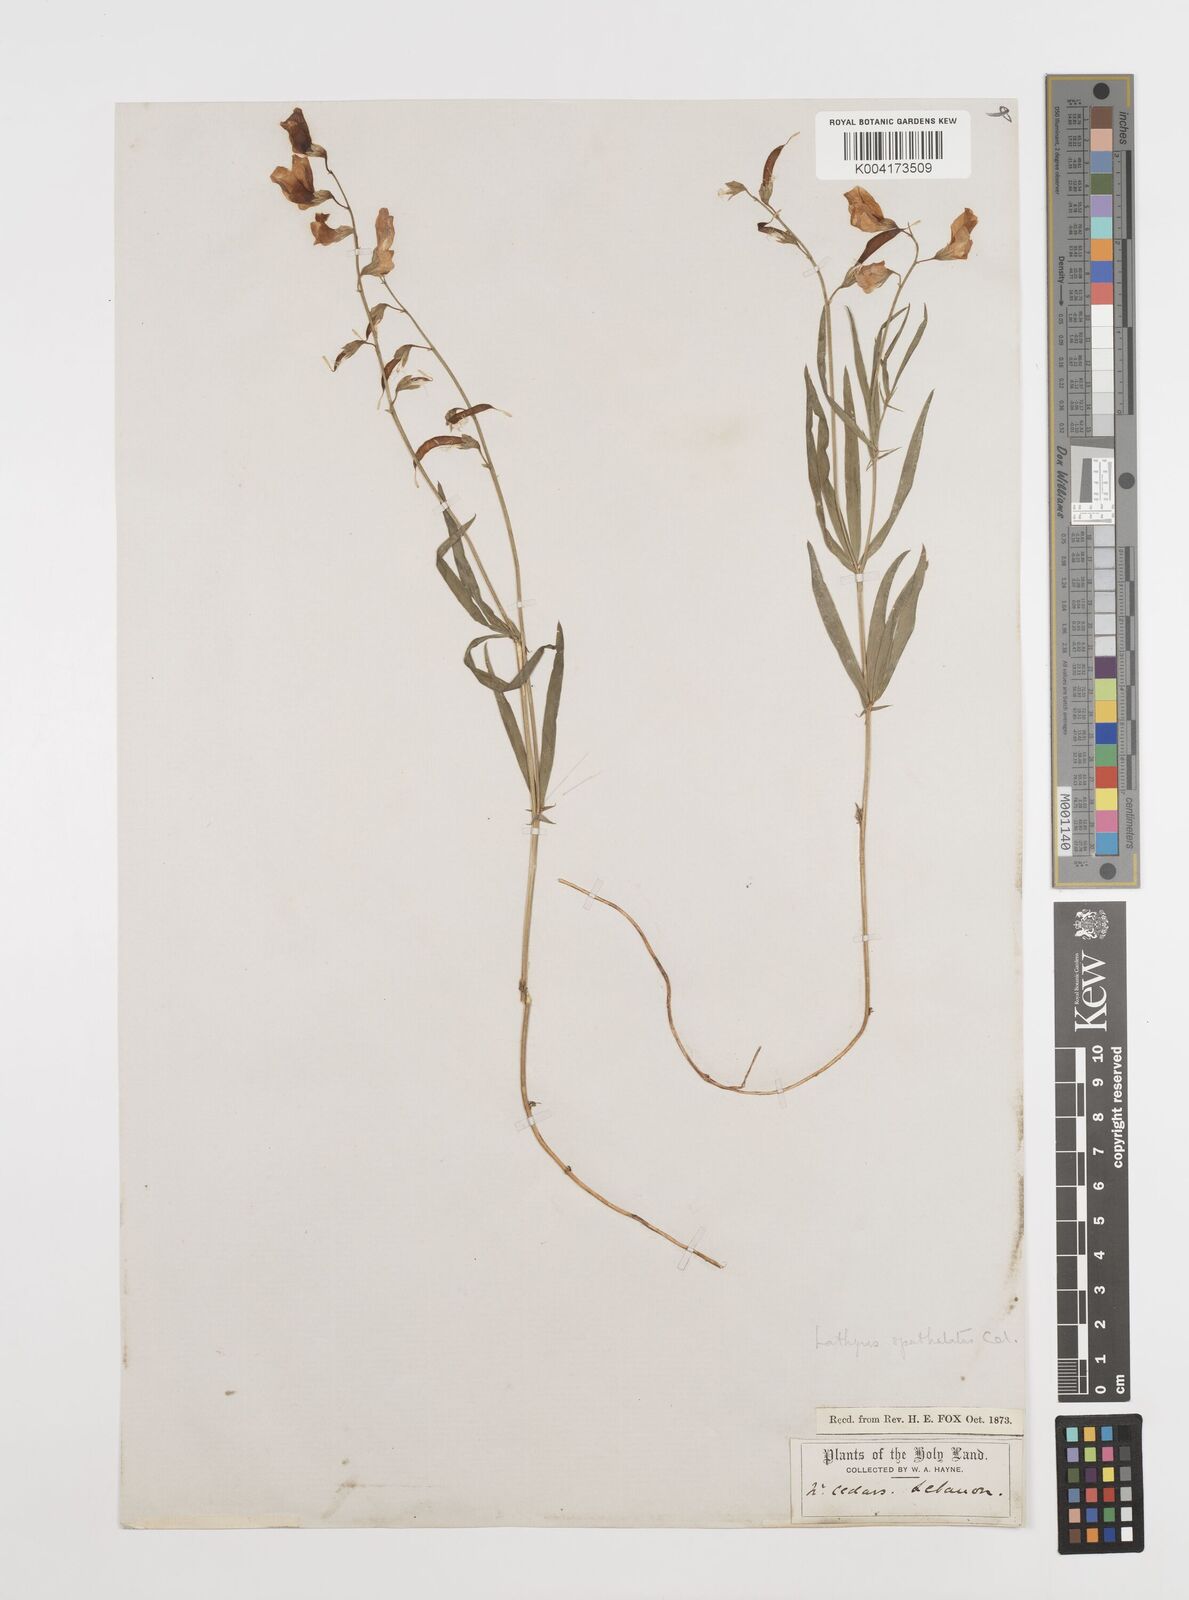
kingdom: Plantae
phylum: Tracheophyta
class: Magnoliopsida
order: Fabales
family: Fabaceae
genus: Lathyrus
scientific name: Lathyrus spathulatus
